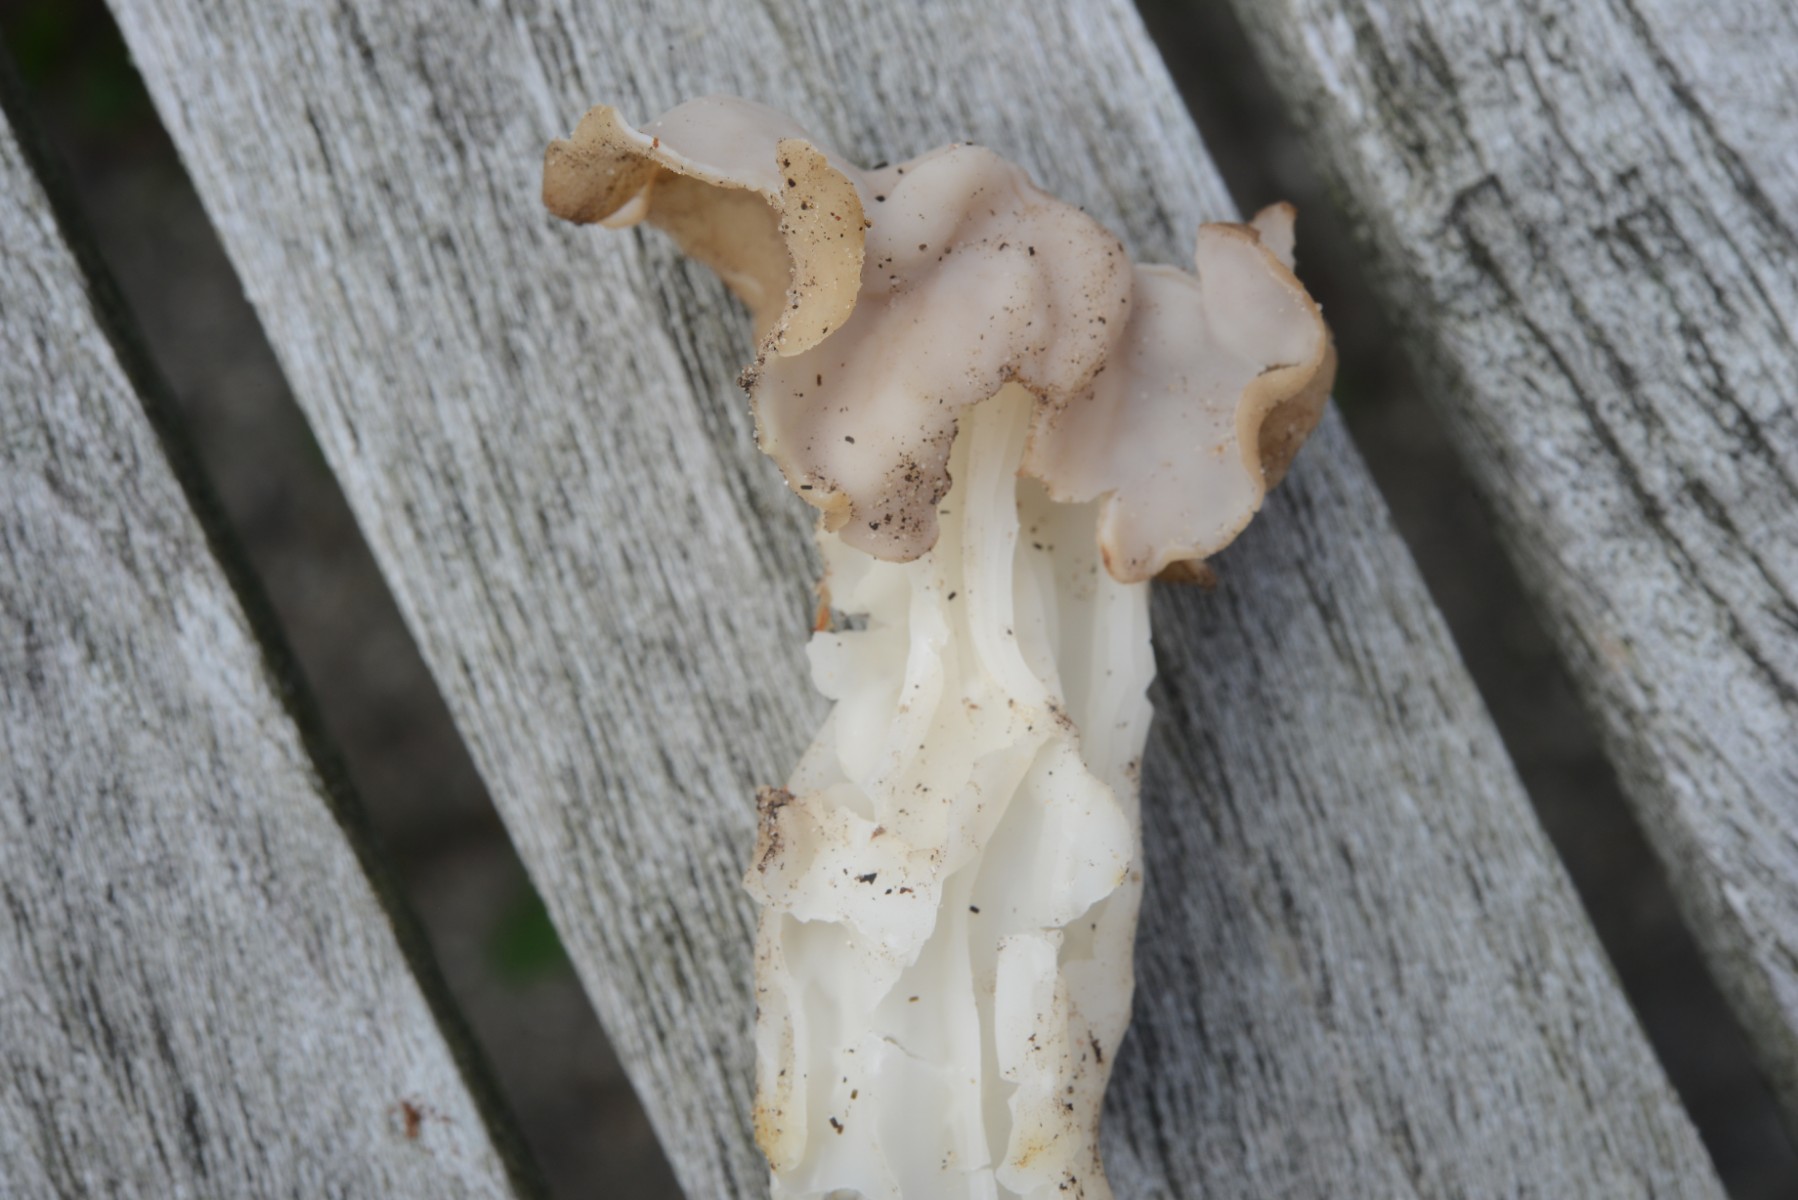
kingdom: Fungi
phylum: Ascomycota
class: Pezizomycetes
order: Pezizales
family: Helvellaceae
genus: Helvella
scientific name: Helvella crispa
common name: kruset foldhat
